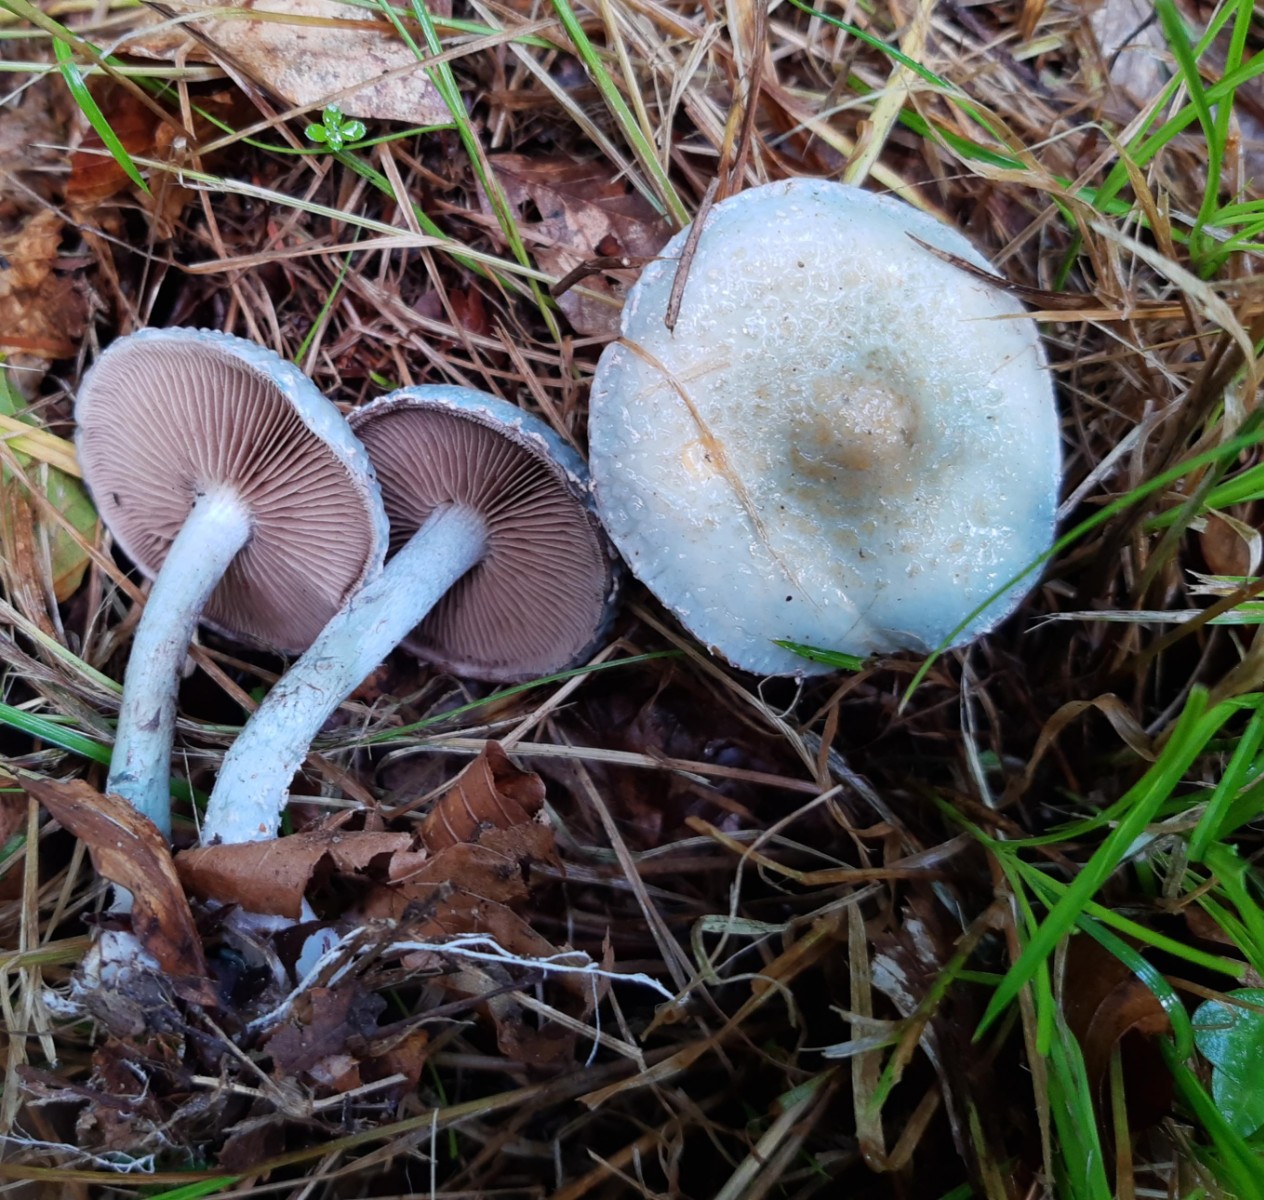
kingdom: Fungi
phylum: Basidiomycota
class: Agaricomycetes
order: Agaricales
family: Strophariaceae
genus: Stropharia
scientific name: Stropharia cyanea
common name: blågrøn bredblad
